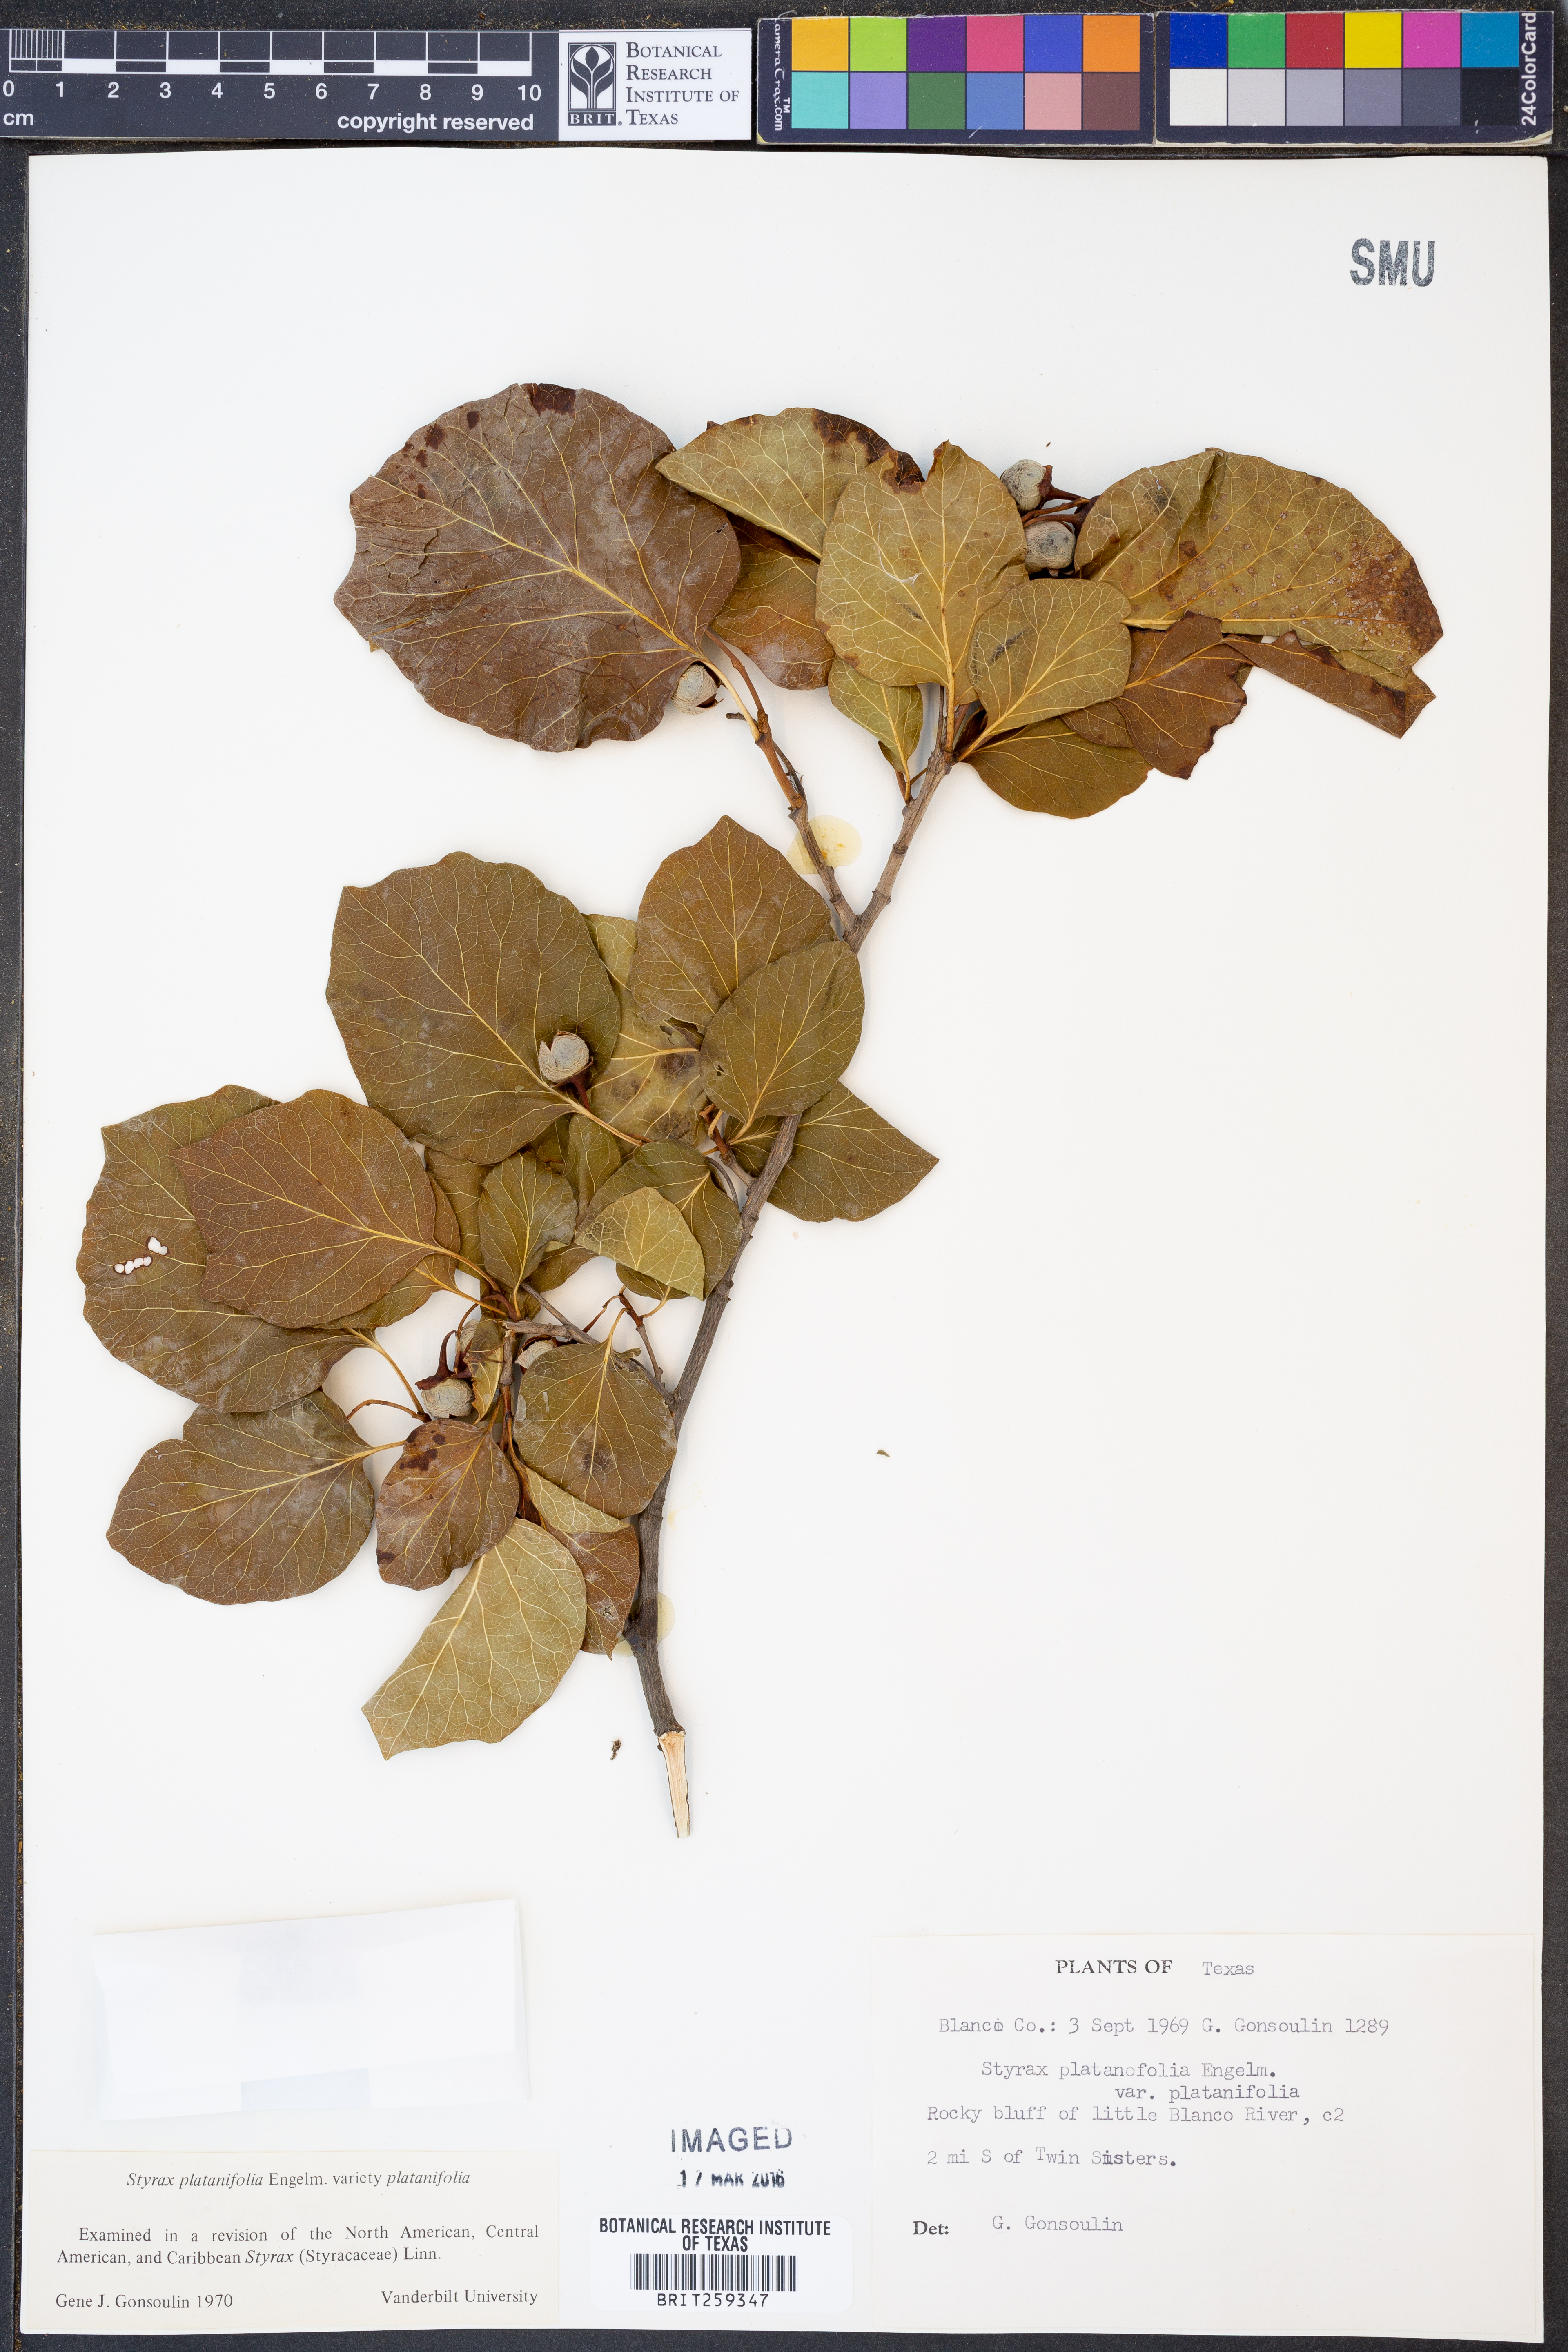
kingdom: Plantae
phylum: Tracheophyta
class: Magnoliopsida
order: Ericales
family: Styracaceae
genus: Styrax
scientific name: Styrax platanifolius
